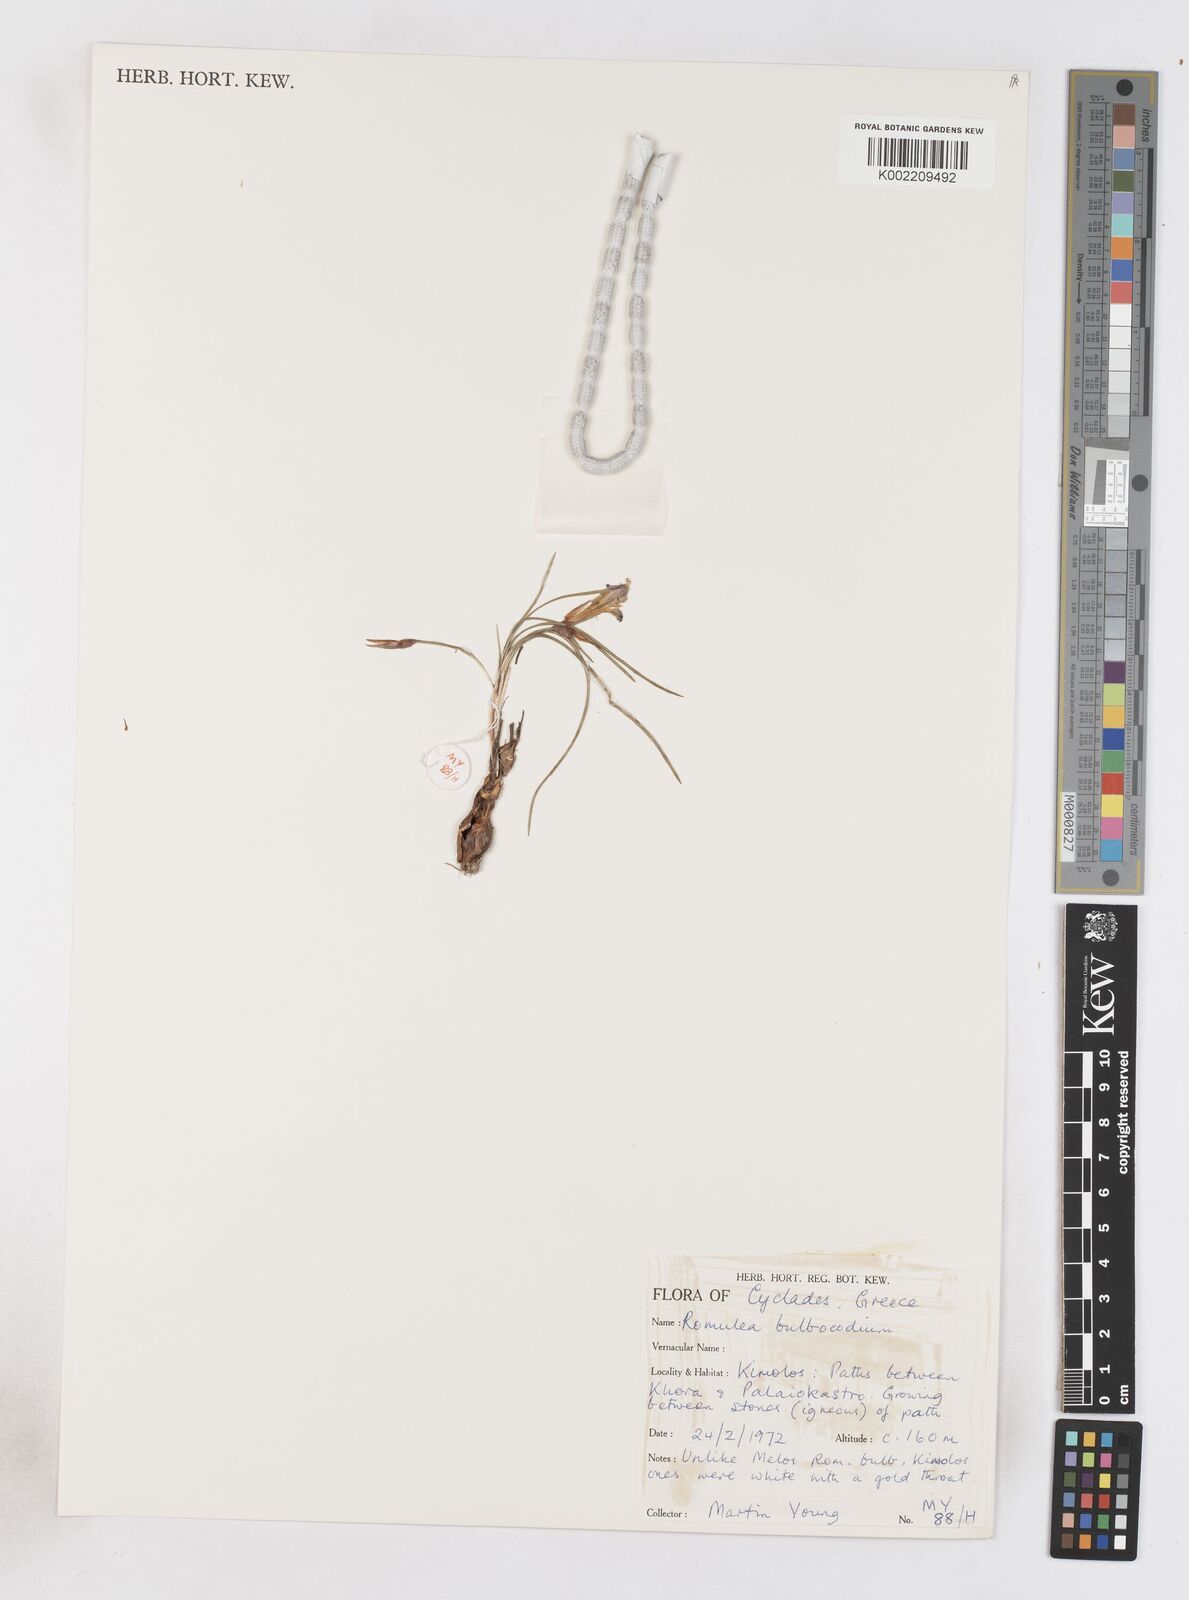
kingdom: Plantae
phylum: Tracheophyta
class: Liliopsida
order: Asparagales
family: Iridaceae
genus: Romulea
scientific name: Romulea bulbocodium
